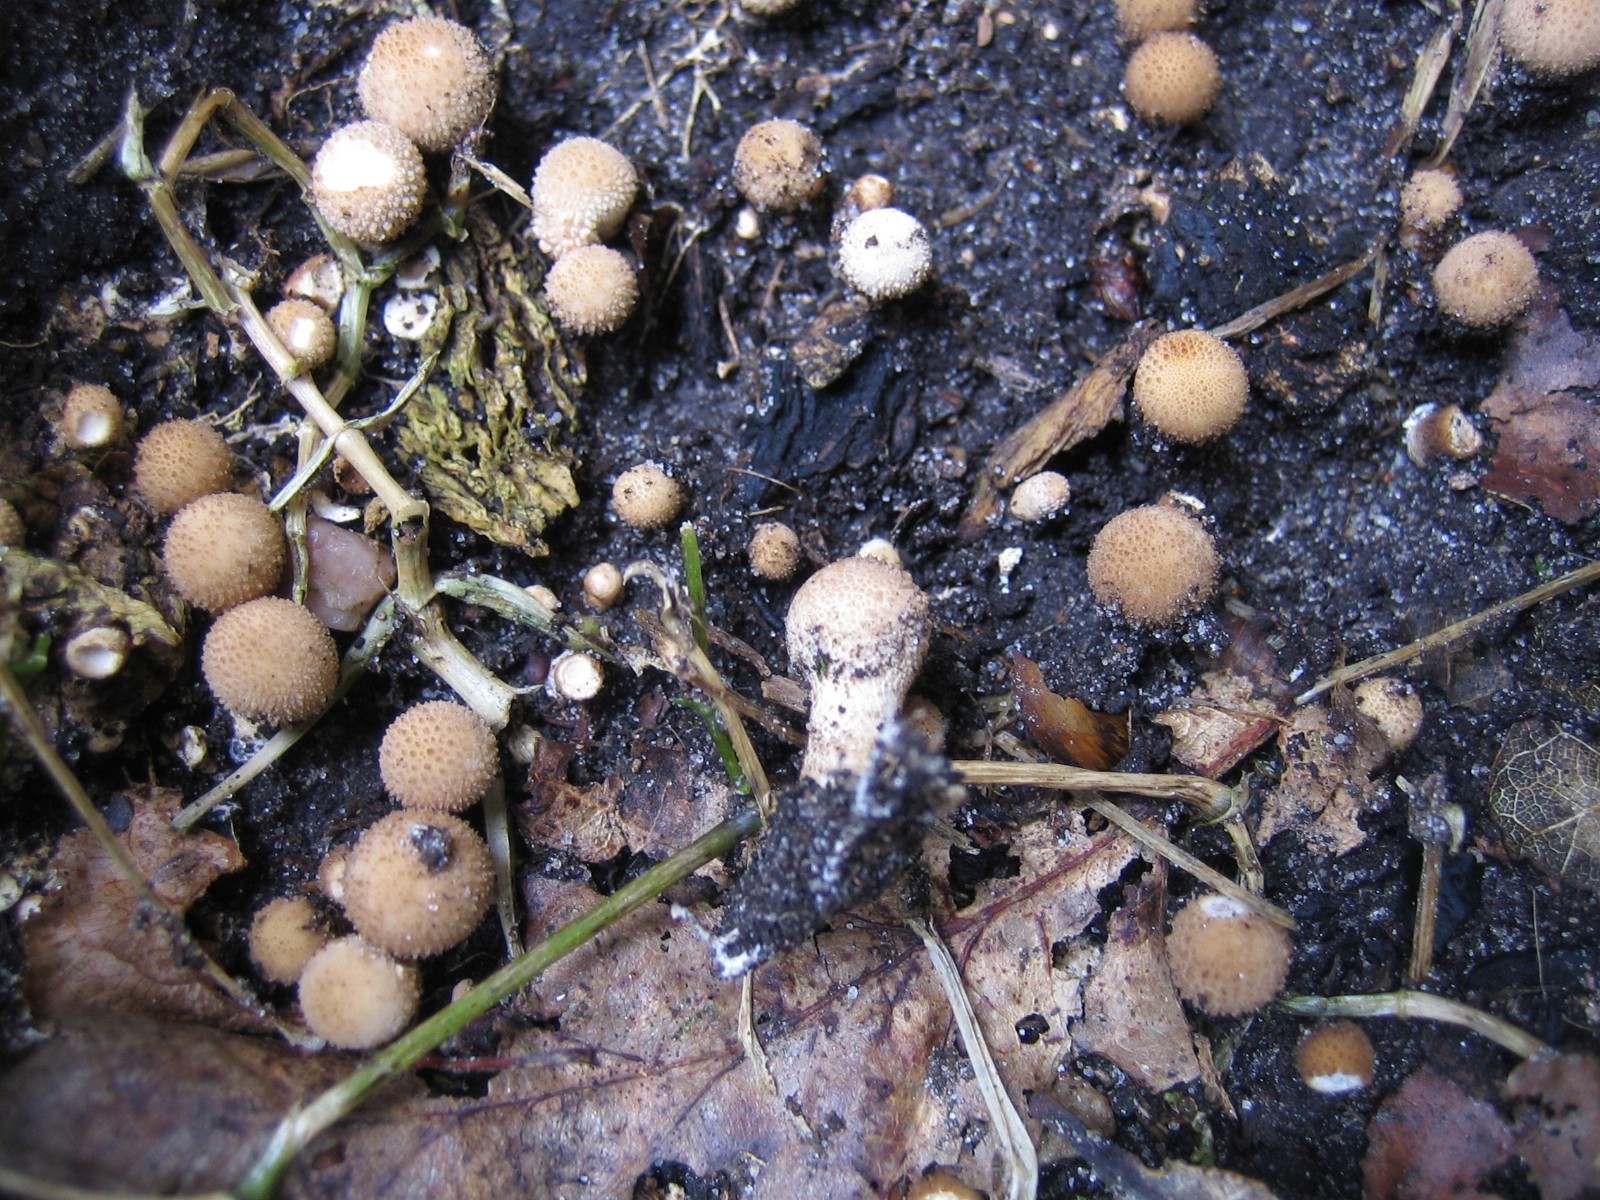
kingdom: Fungi
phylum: Basidiomycota
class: Agaricomycetes
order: Agaricales
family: Lycoperdaceae
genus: Apioperdon
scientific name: Apioperdon pyriforme
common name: pære-støvbold
